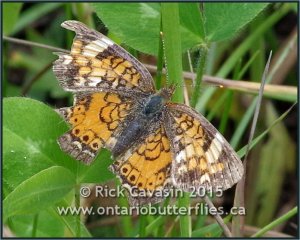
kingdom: Animalia
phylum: Arthropoda
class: Insecta
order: Lepidoptera
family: Nymphalidae
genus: Phyciodes
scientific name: Phyciodes tharos
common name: Northern Crescent
